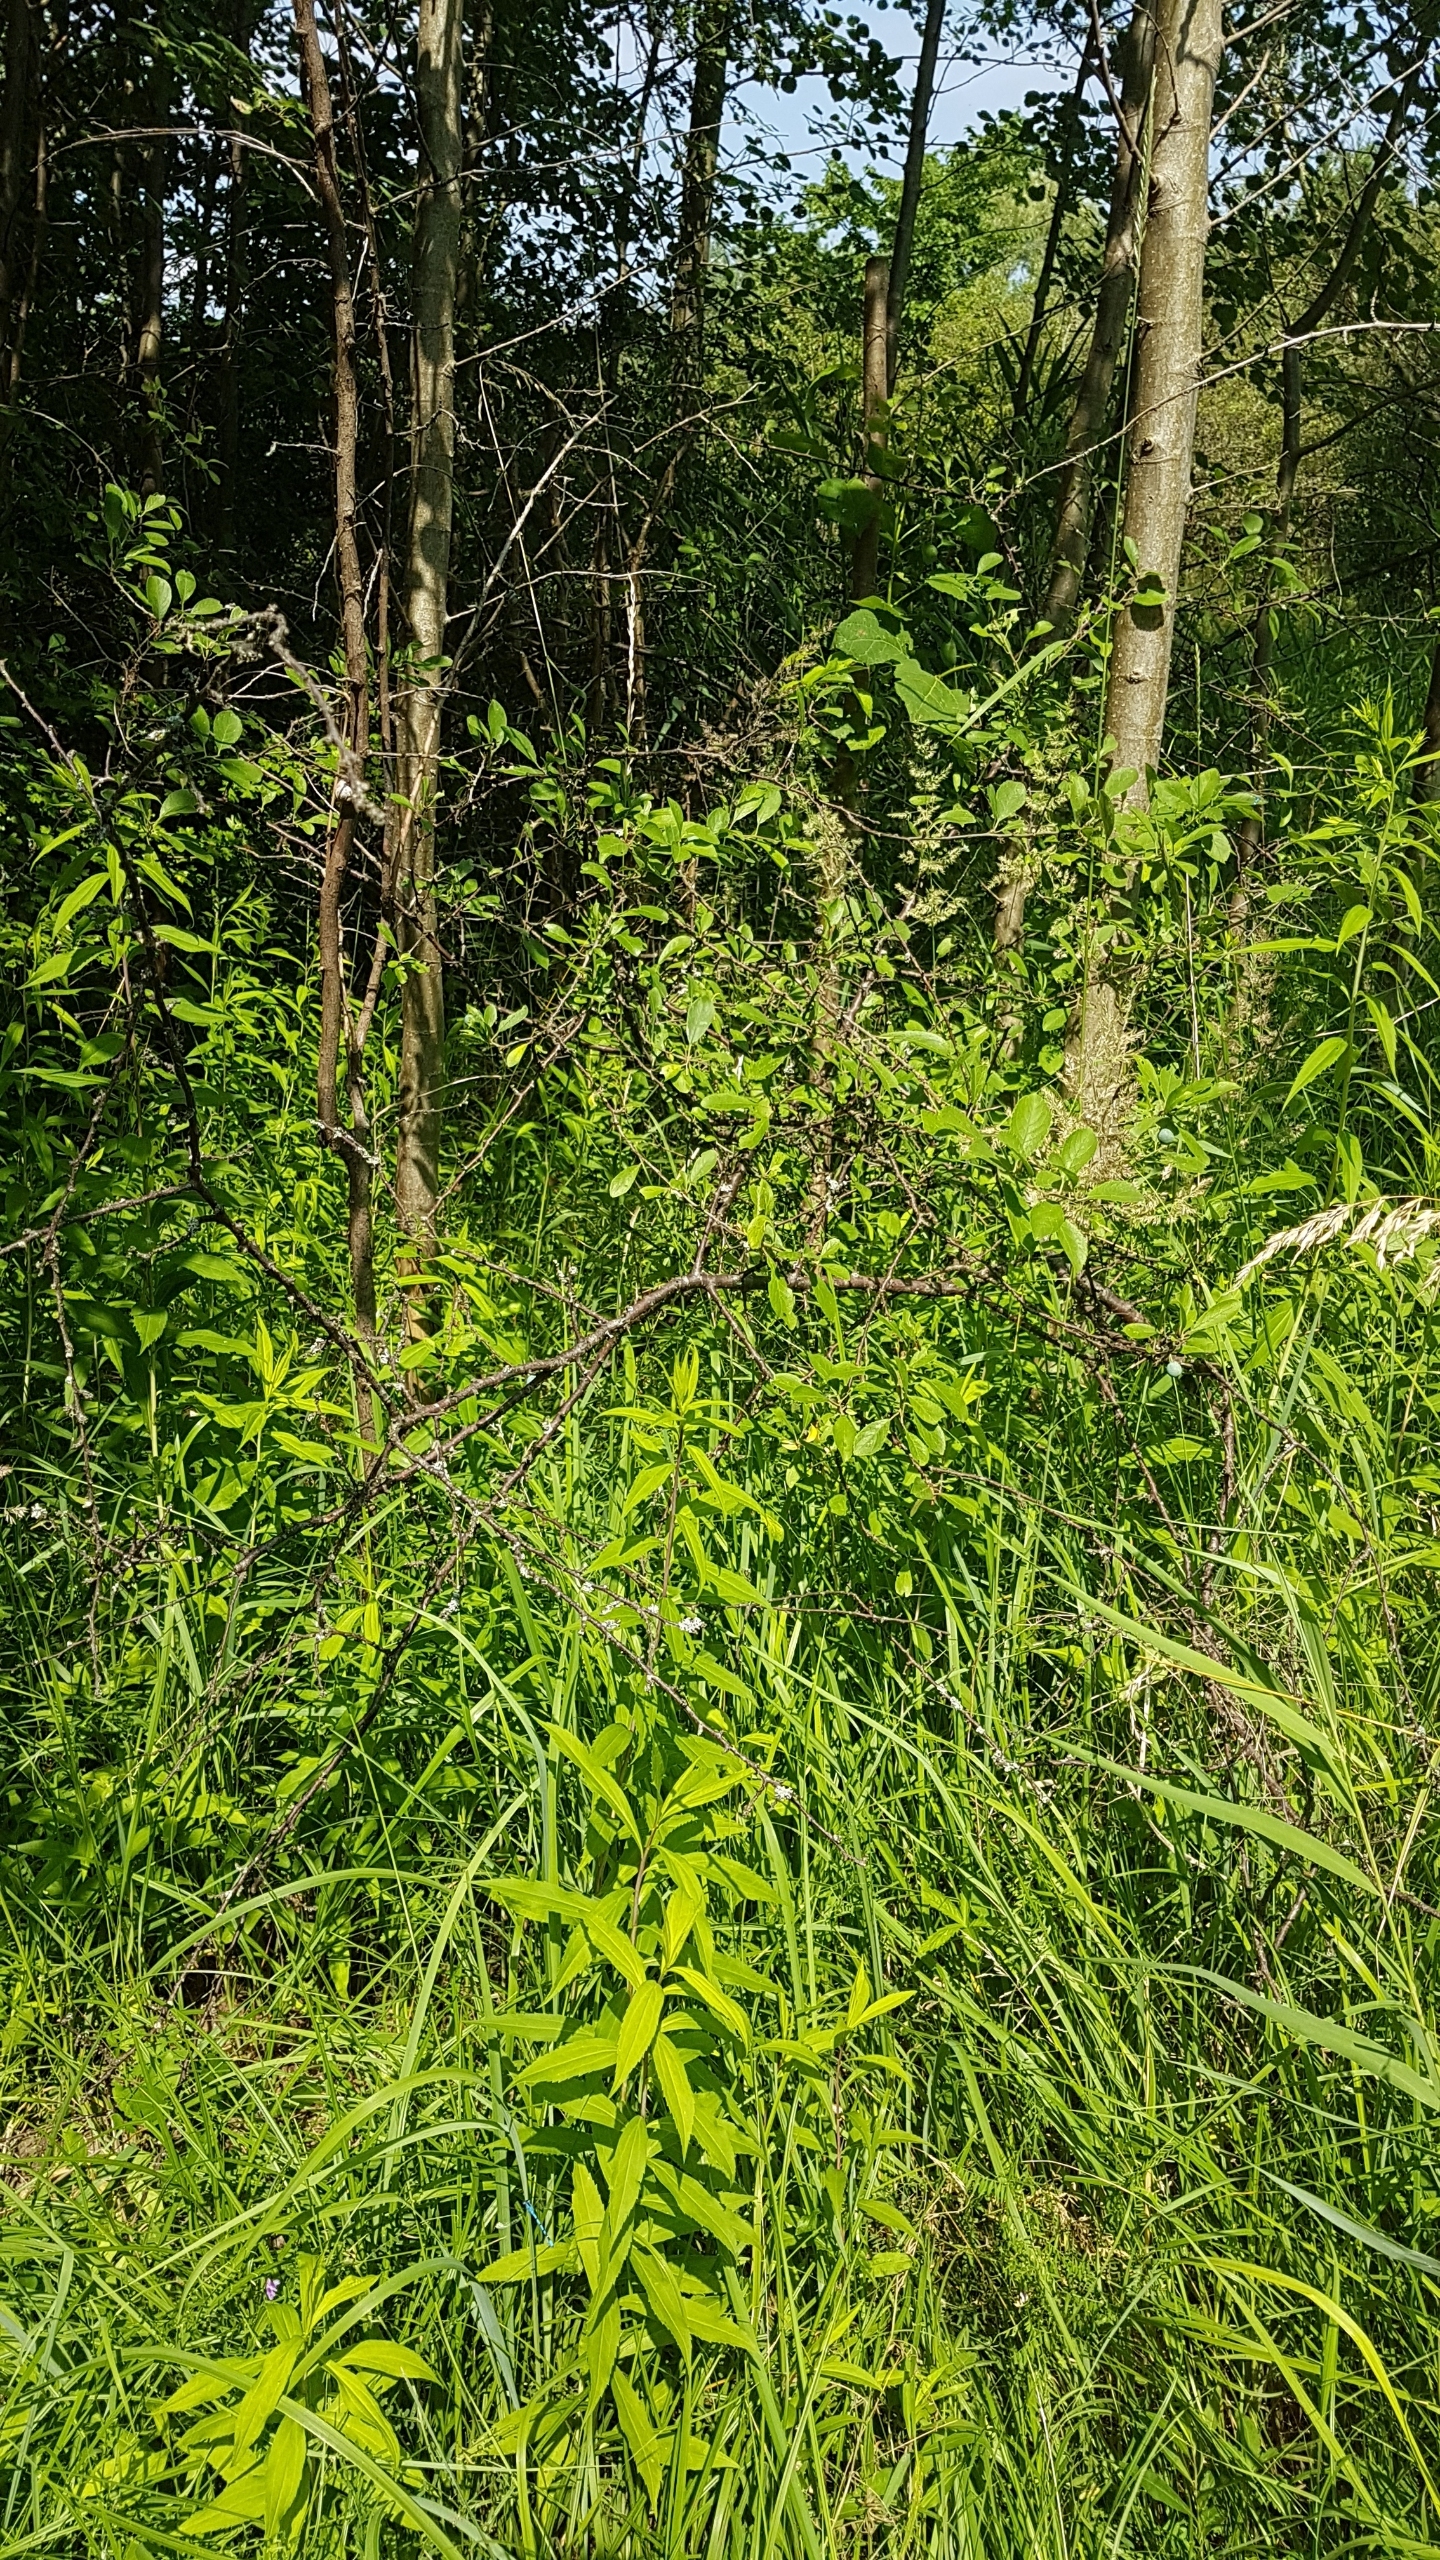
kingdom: Plantae
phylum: Tracheophyta
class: Magnoliopsida
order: Rosales
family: Rosaceae
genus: Prunus
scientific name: Prunus spinosa
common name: Slåen
